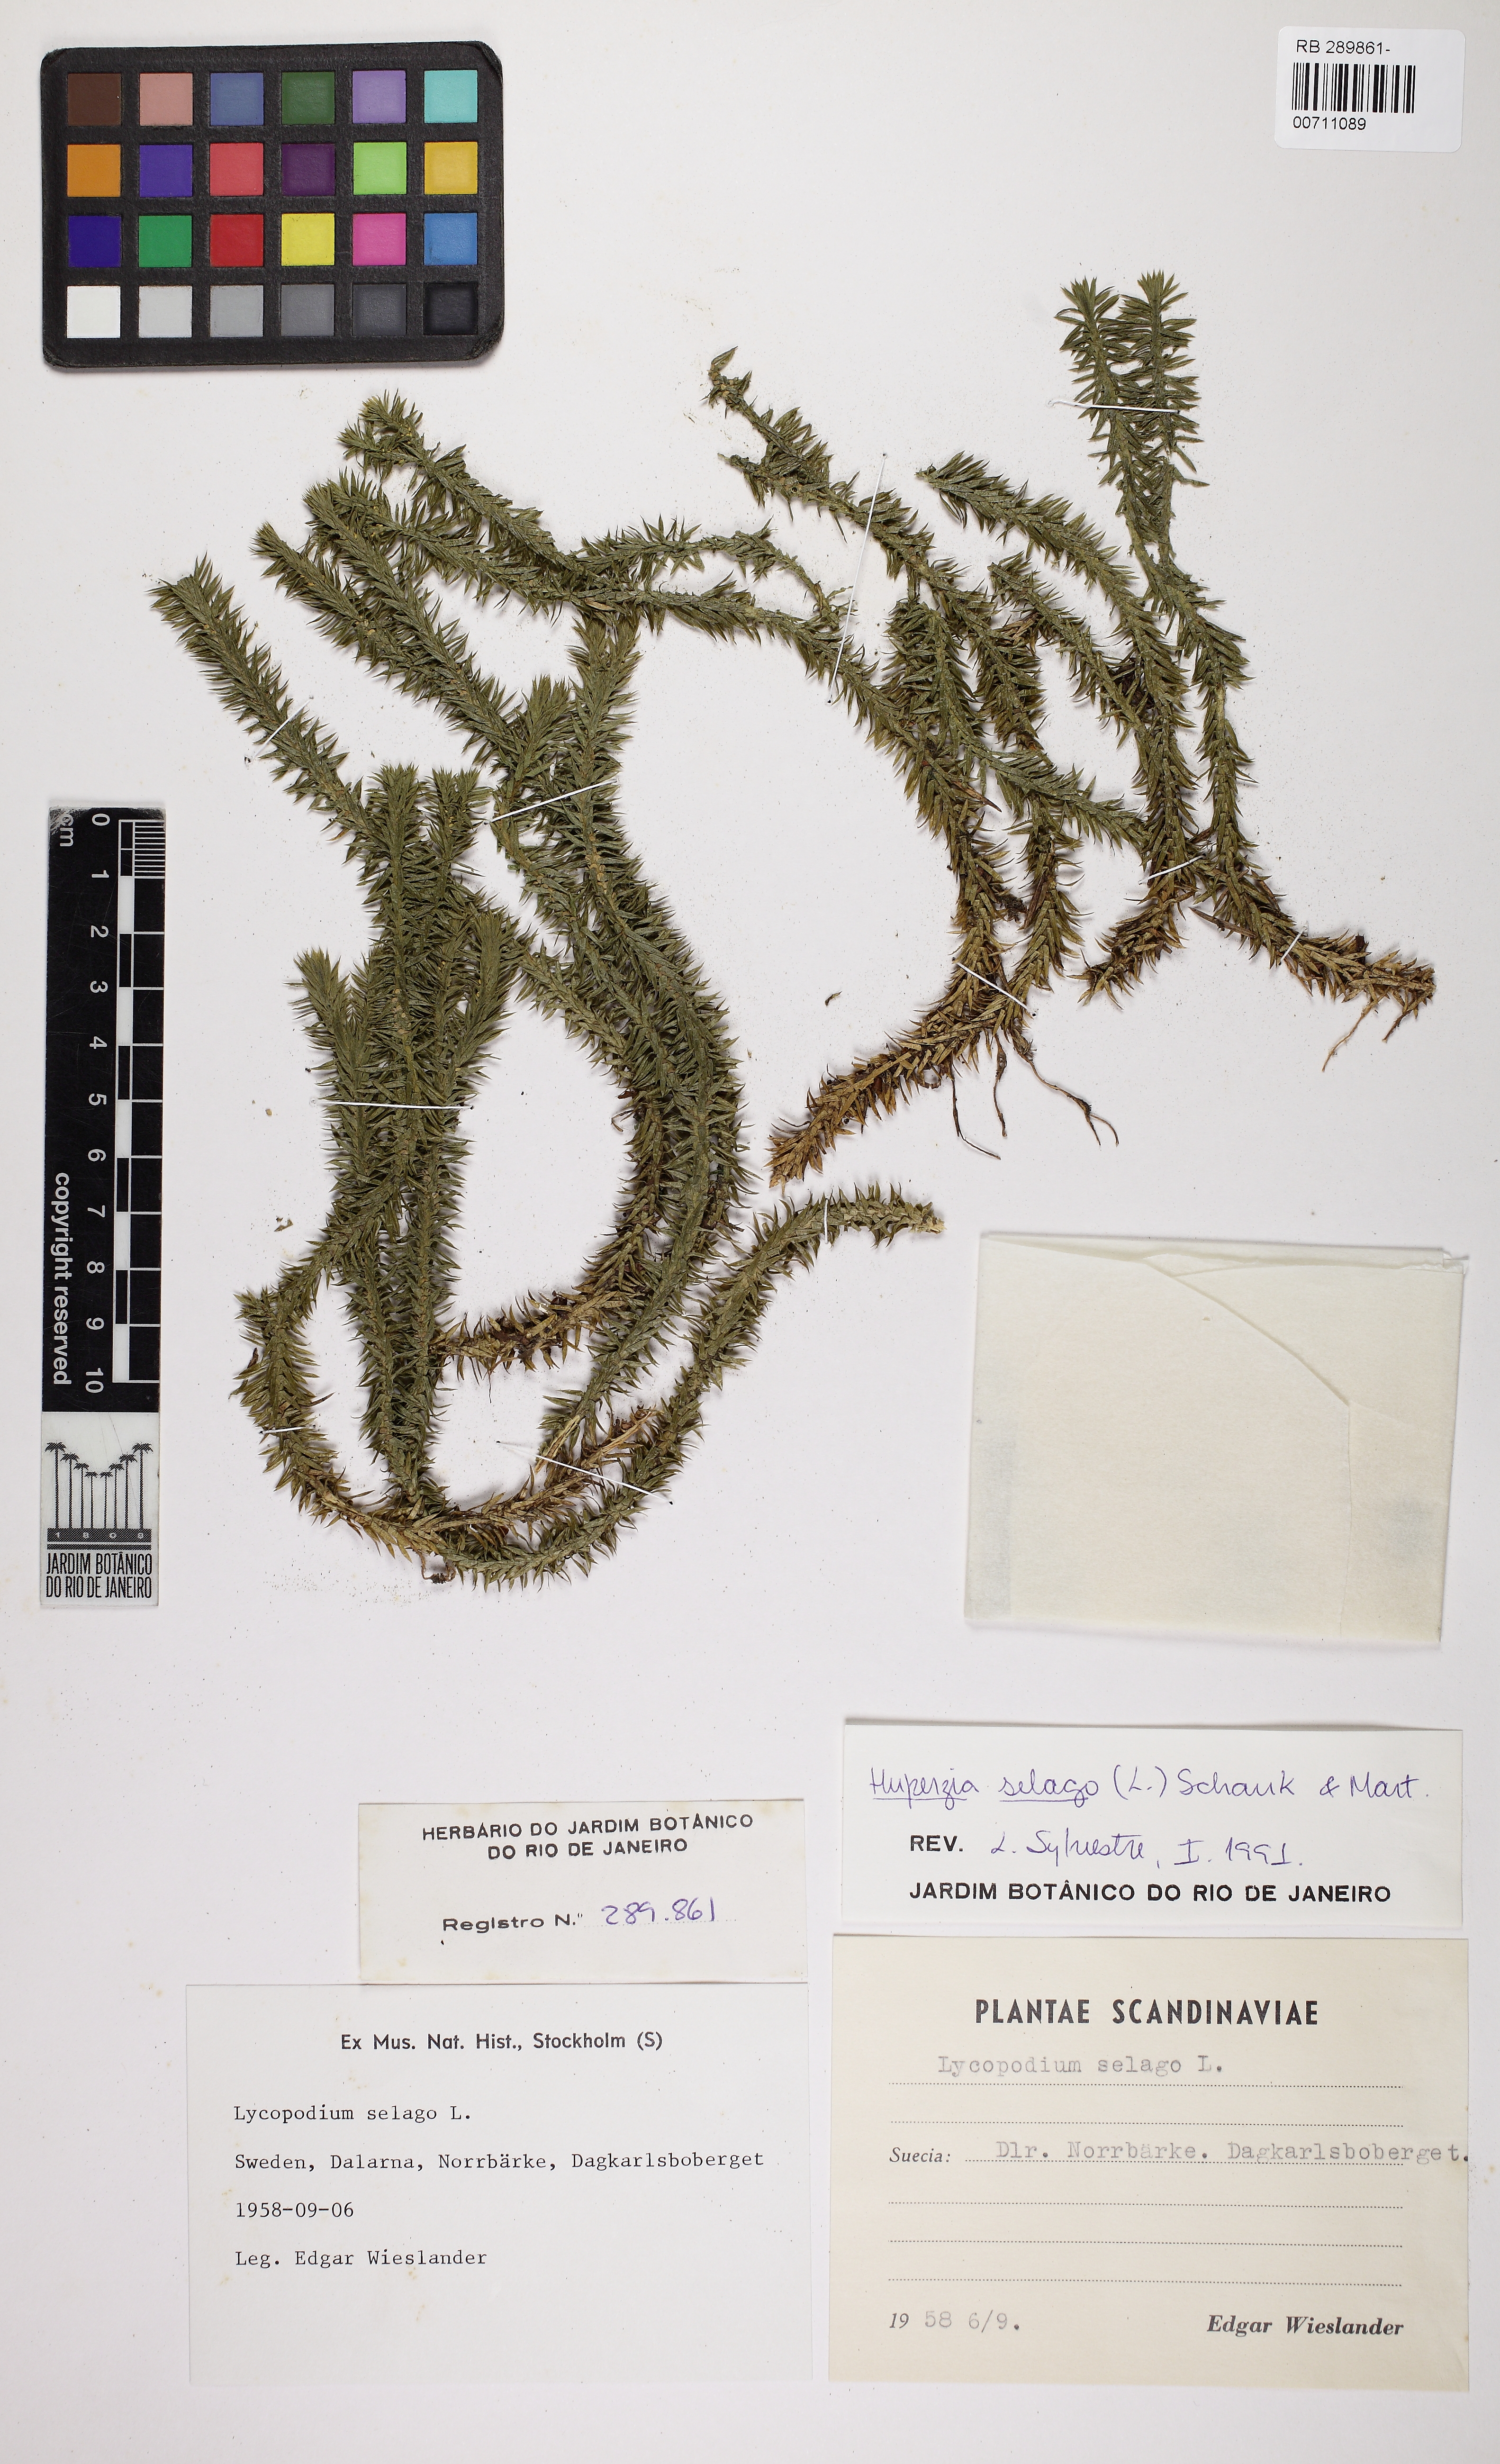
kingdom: Plantae
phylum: Tracheophyta
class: Lycopodiopsida
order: Lycopodiales
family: Lycopodiaceae
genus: Huperzia
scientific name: Huperzia selago
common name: Northern firmoss
